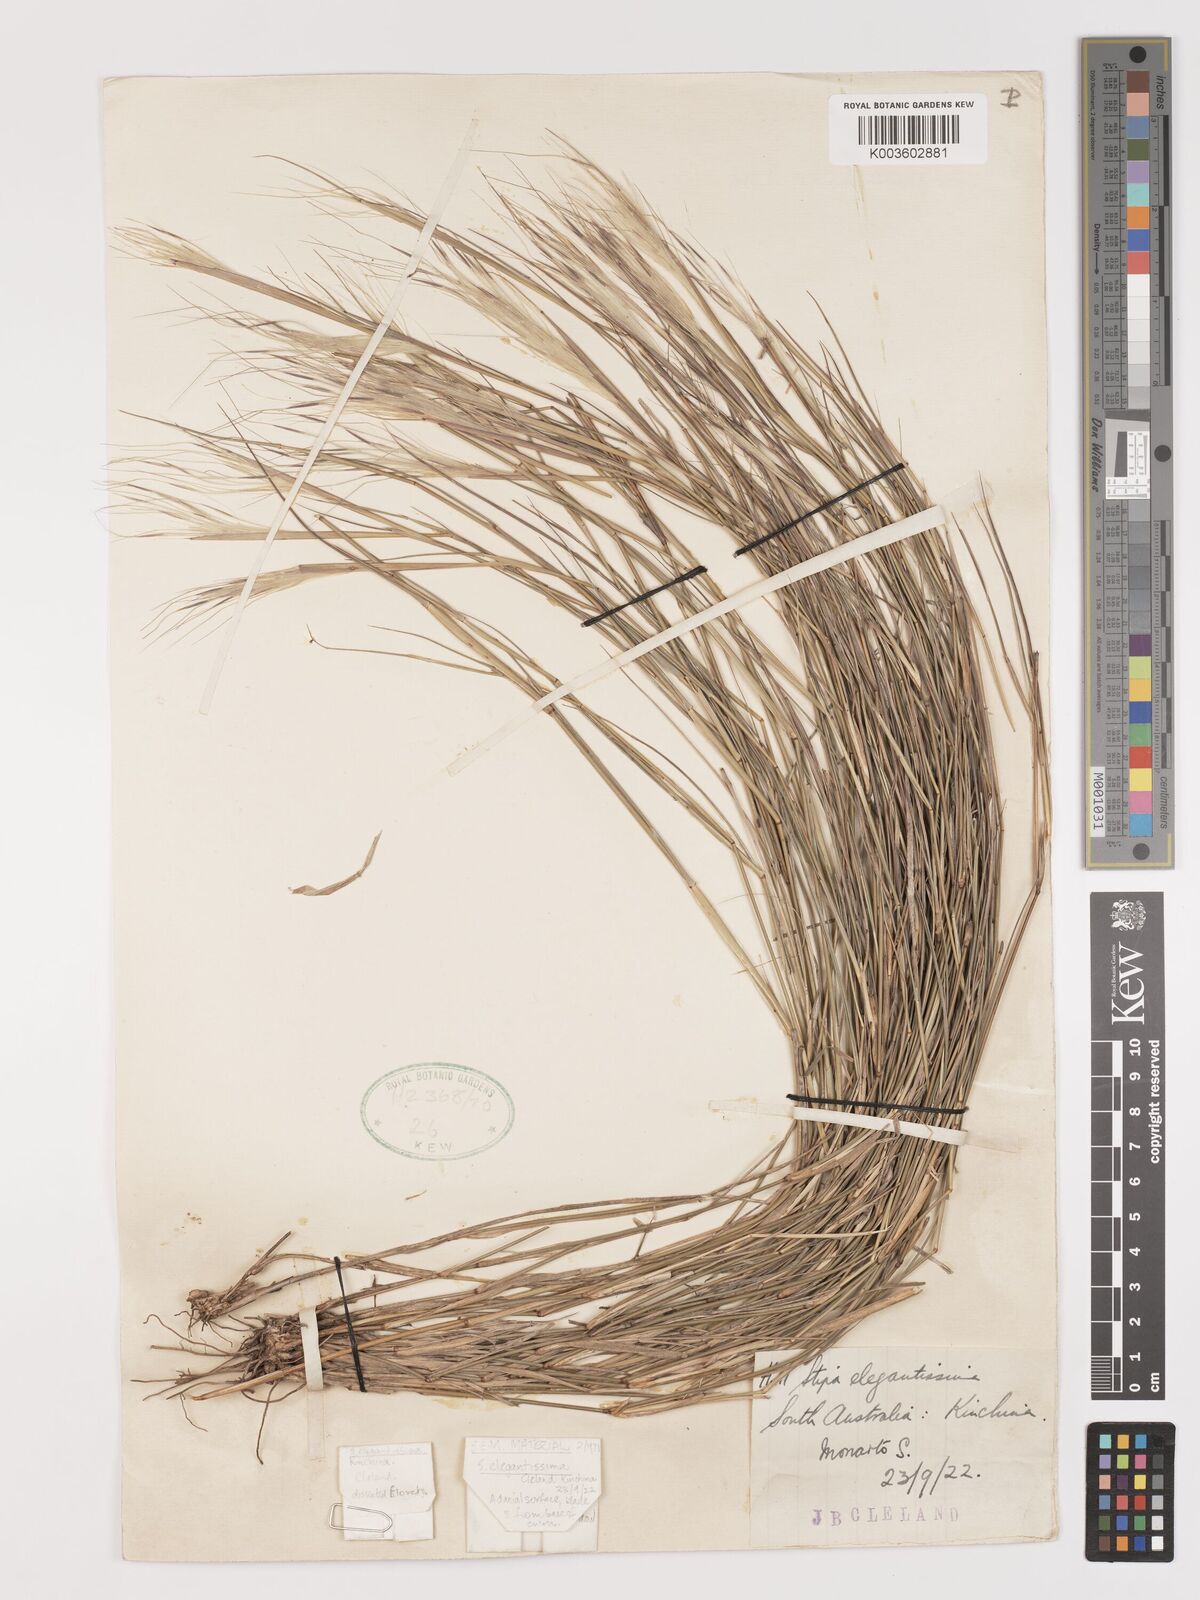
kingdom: Plantae
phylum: Tracheophyta
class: Liliopsida
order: Poales
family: Poaceae
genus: Austrostipa
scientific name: Austrostipa elegantissima
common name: Feather spear grass
